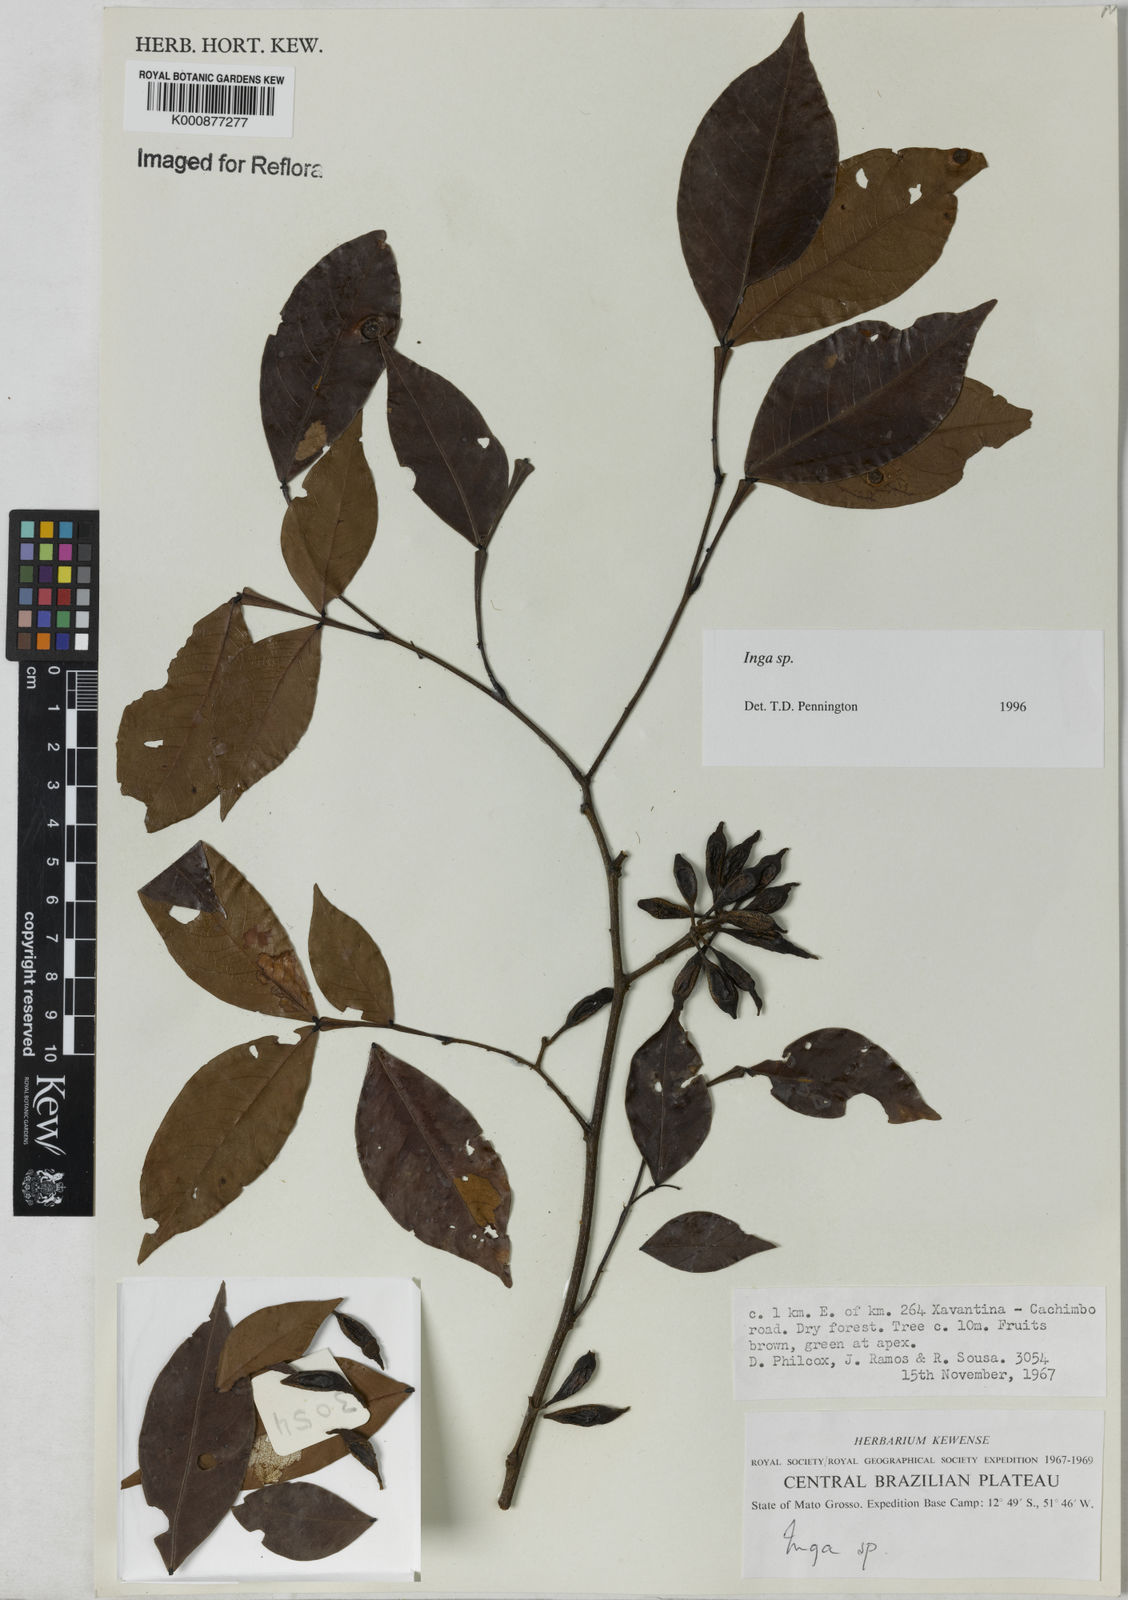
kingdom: Plantae
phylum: Tracheophyta
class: Magnoliopsida
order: Fabales
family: Fabaceae
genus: Inga
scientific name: Inga
